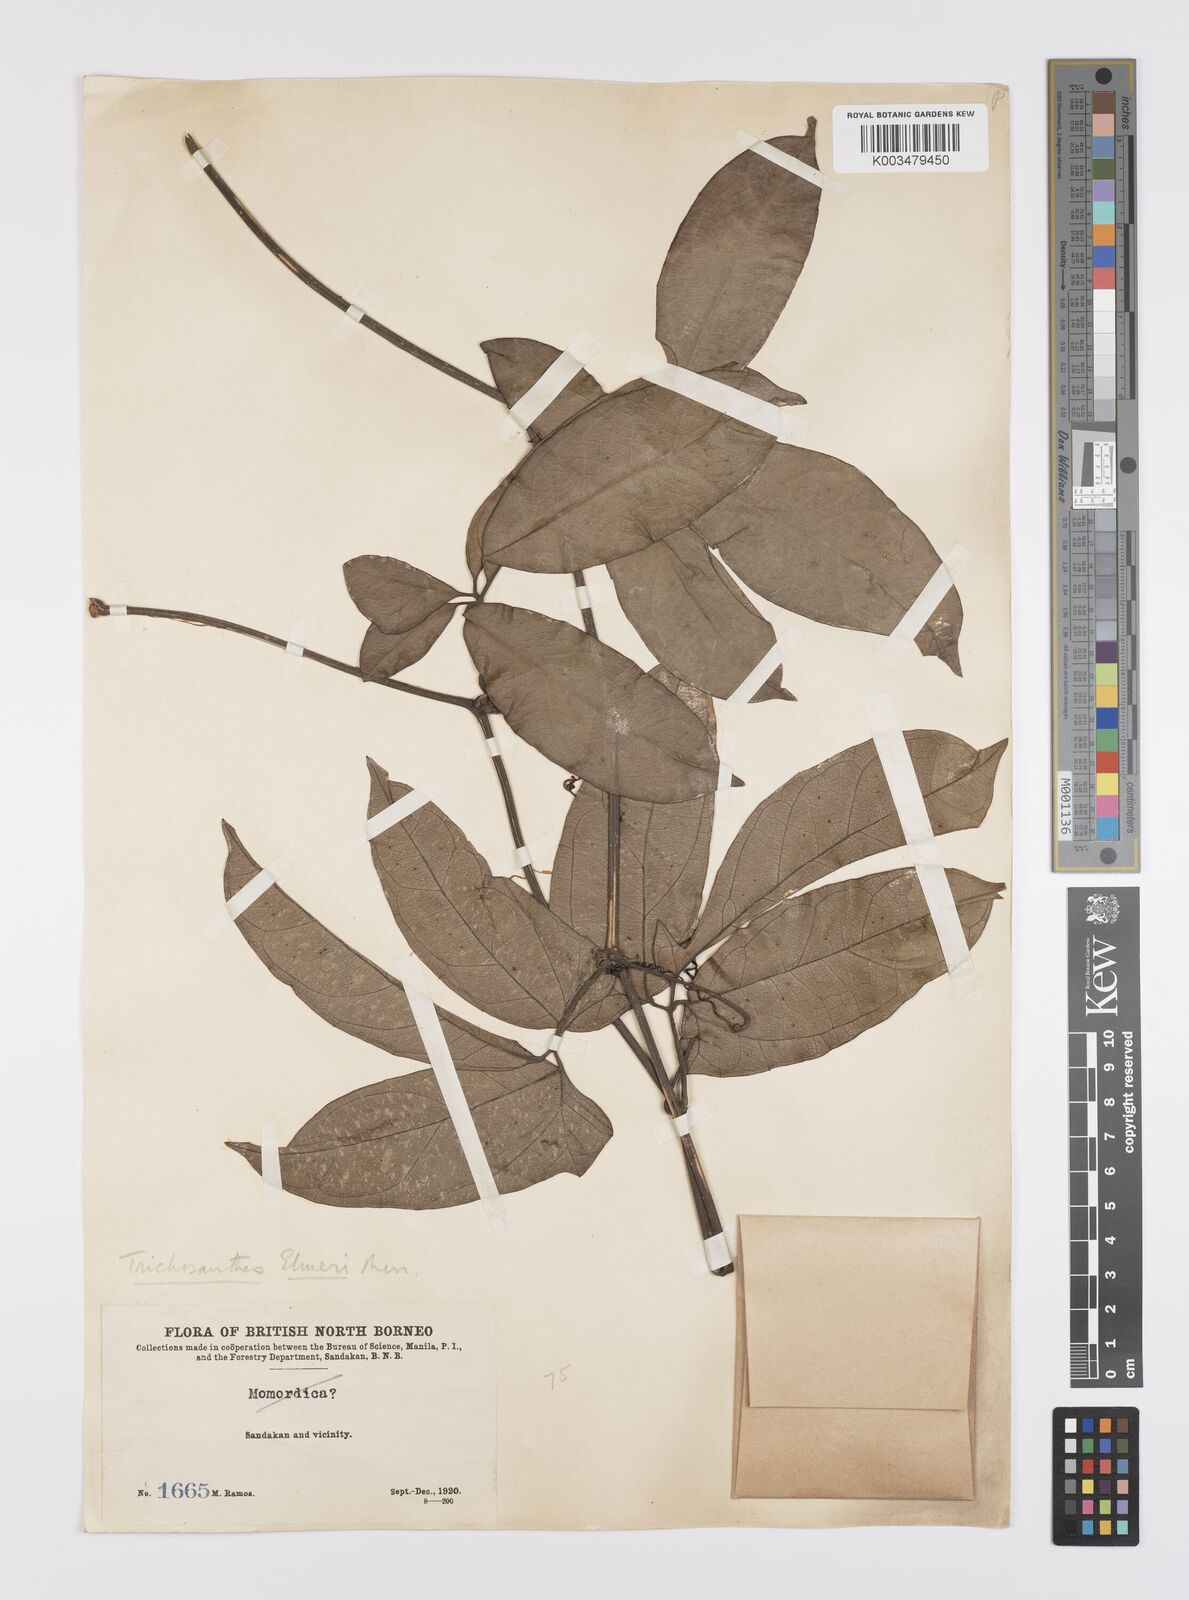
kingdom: Plantae
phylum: Tracheophyta
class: Magnoliopsida
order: Cucurbitales
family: Cucurbitaceae
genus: Trichosanthes
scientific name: Trichosanthes elmeri
